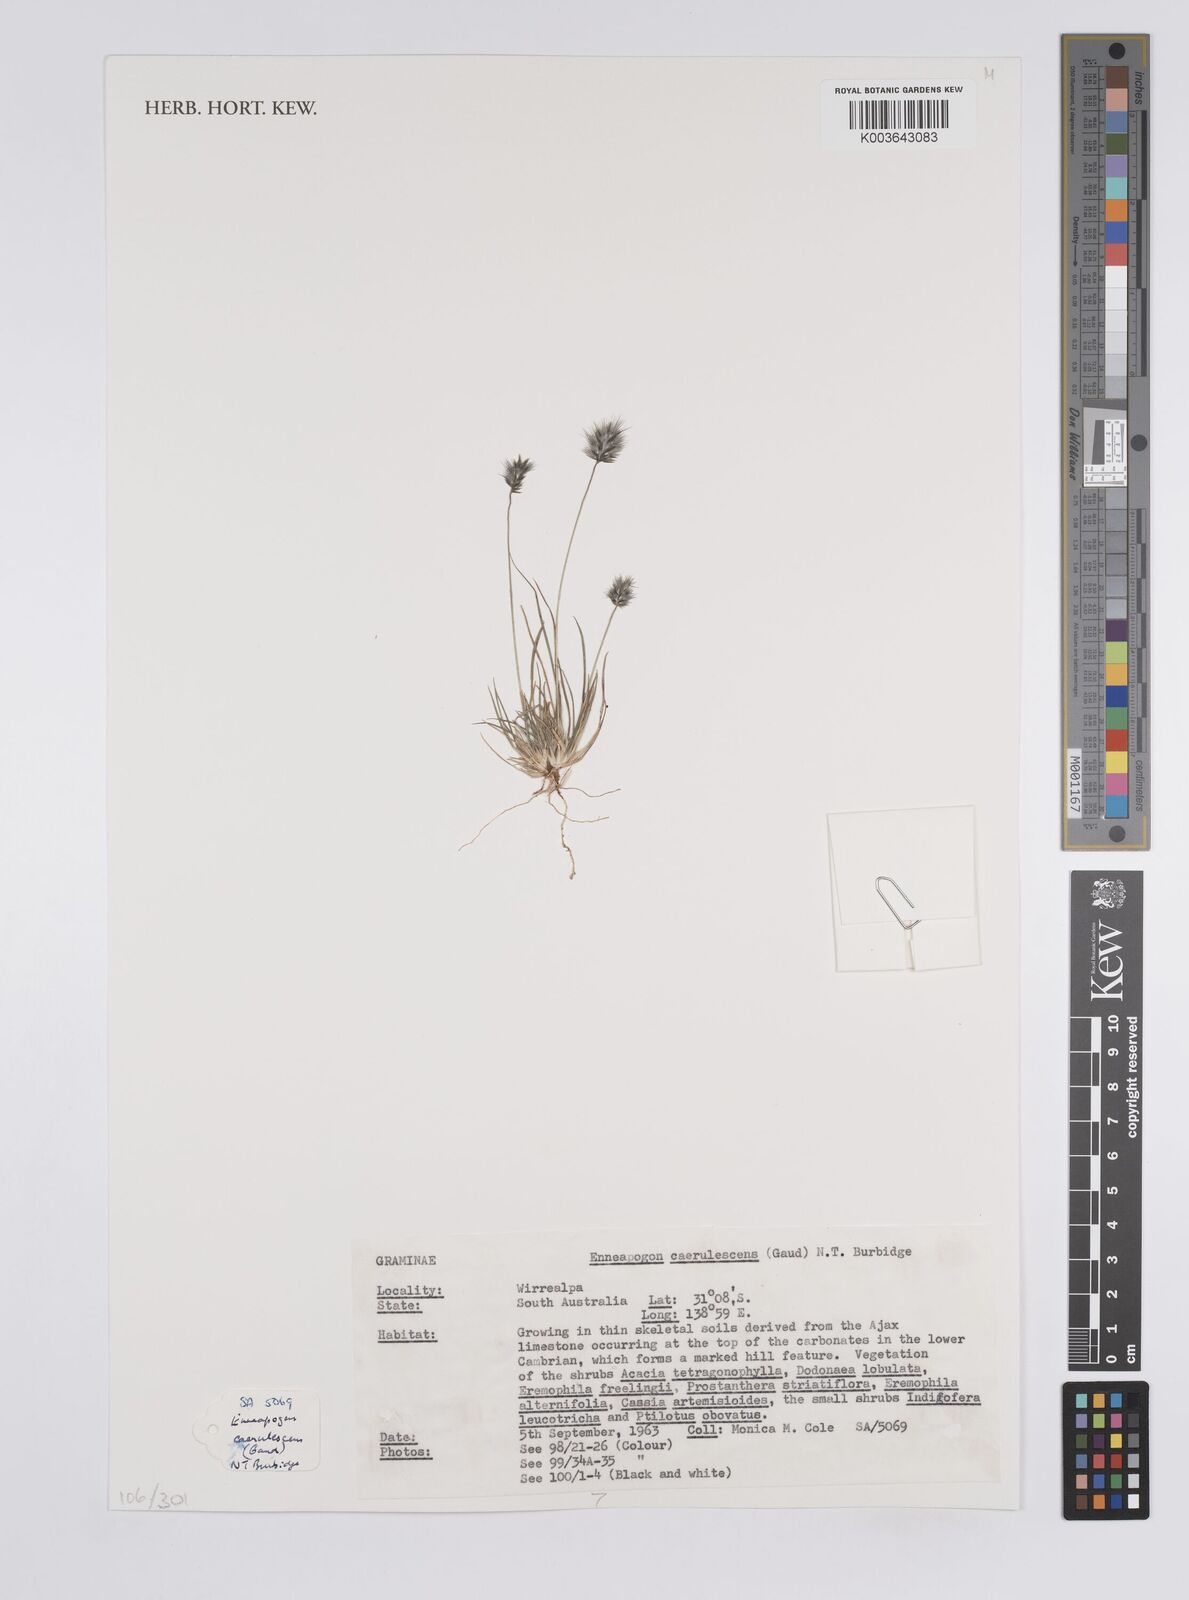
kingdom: Plantae
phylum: Tracheophyta
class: Liliopsida
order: Poales
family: Poaceae
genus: Enneapogon
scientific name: Enneapogon caerulescens
